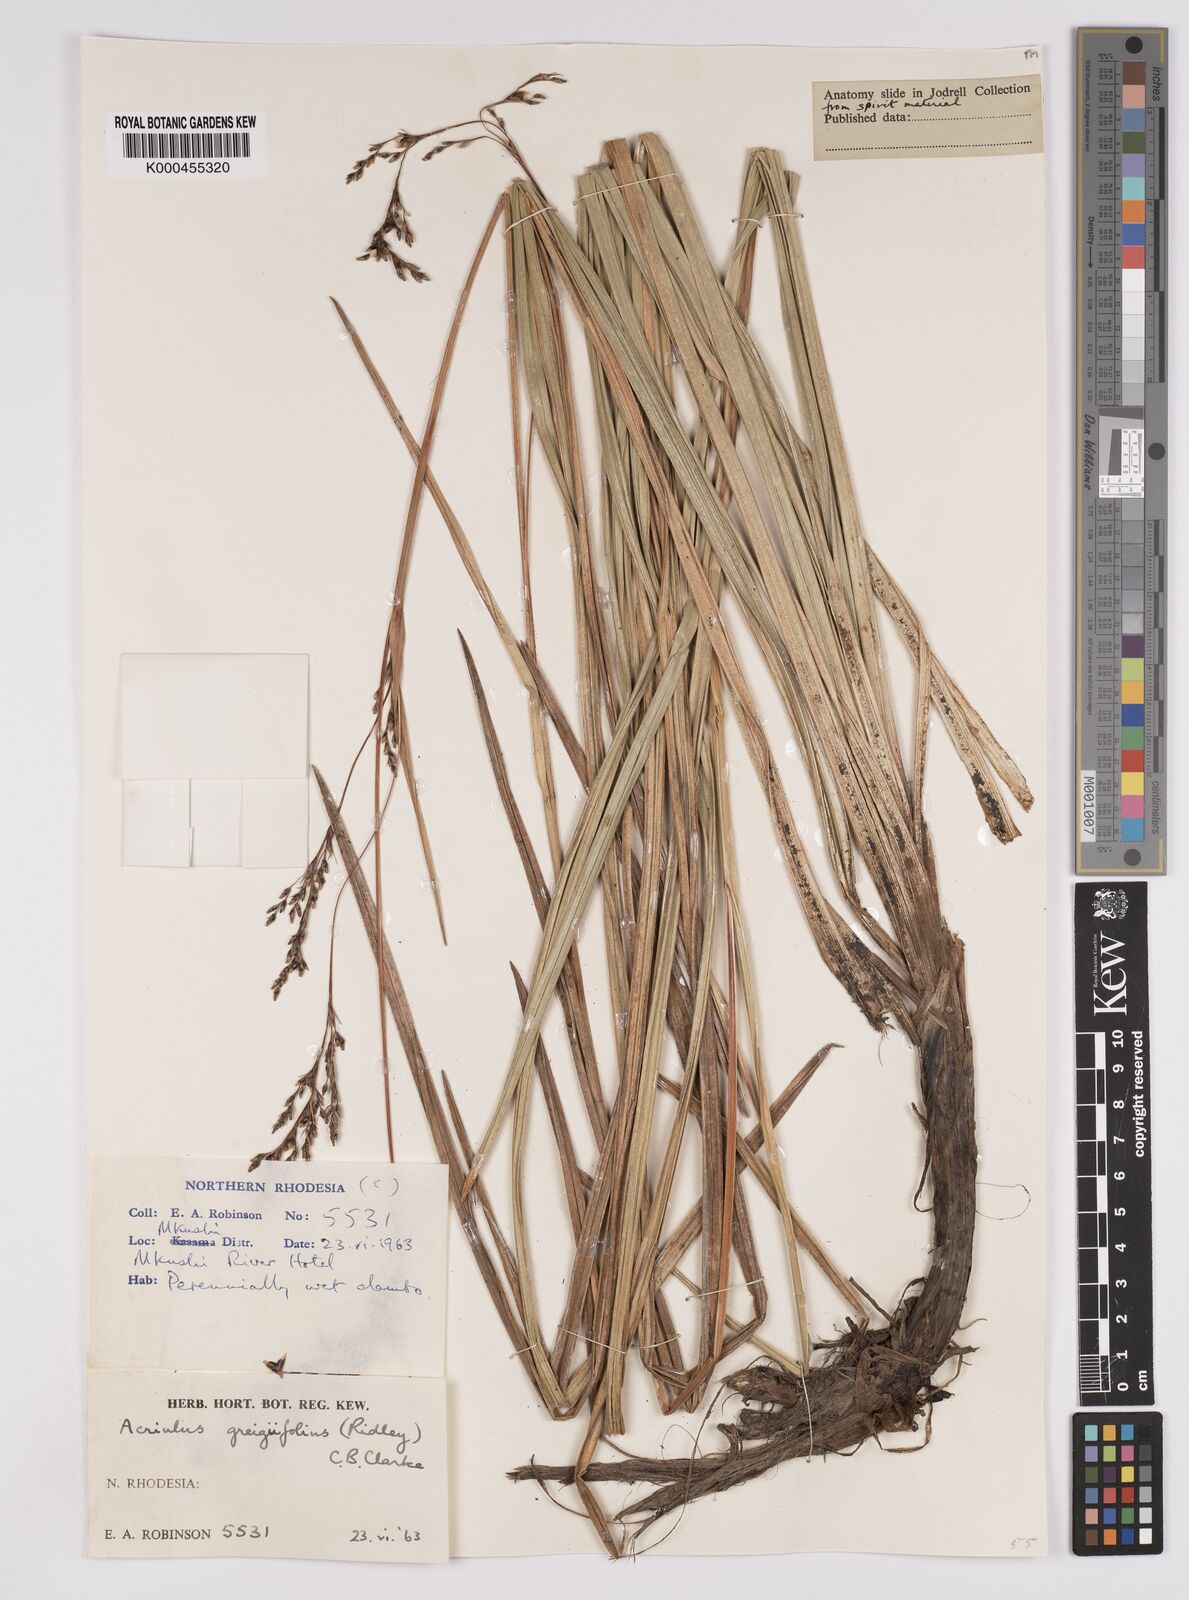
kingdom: Plantae
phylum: Tracheophyta
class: Liliopsida
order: Poales
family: Cyperaceae
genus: Scleria
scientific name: Scleria greigiifolia
